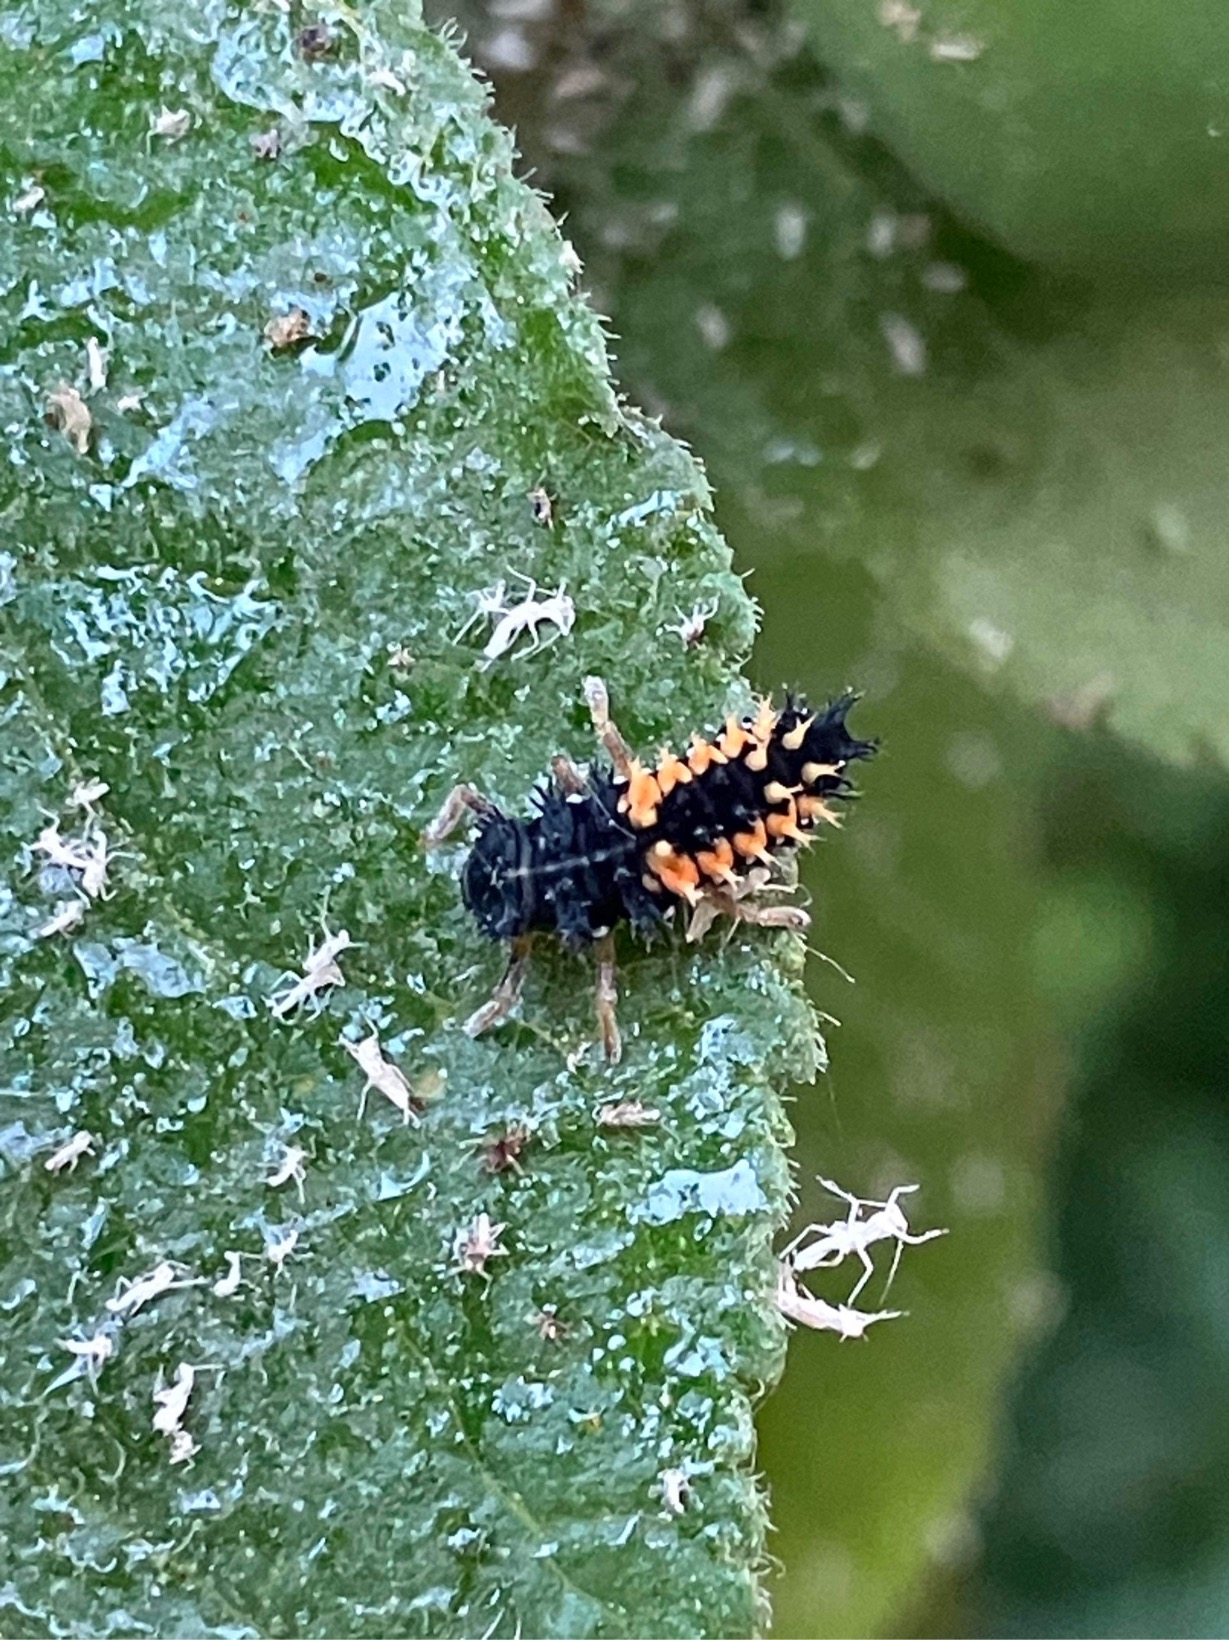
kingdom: Animalia
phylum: Arthropoda
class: Insecta
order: Coleoptera
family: Coccinellidae
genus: Harmonia
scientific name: Harmonia axyridis
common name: Harlekinmariehøne
